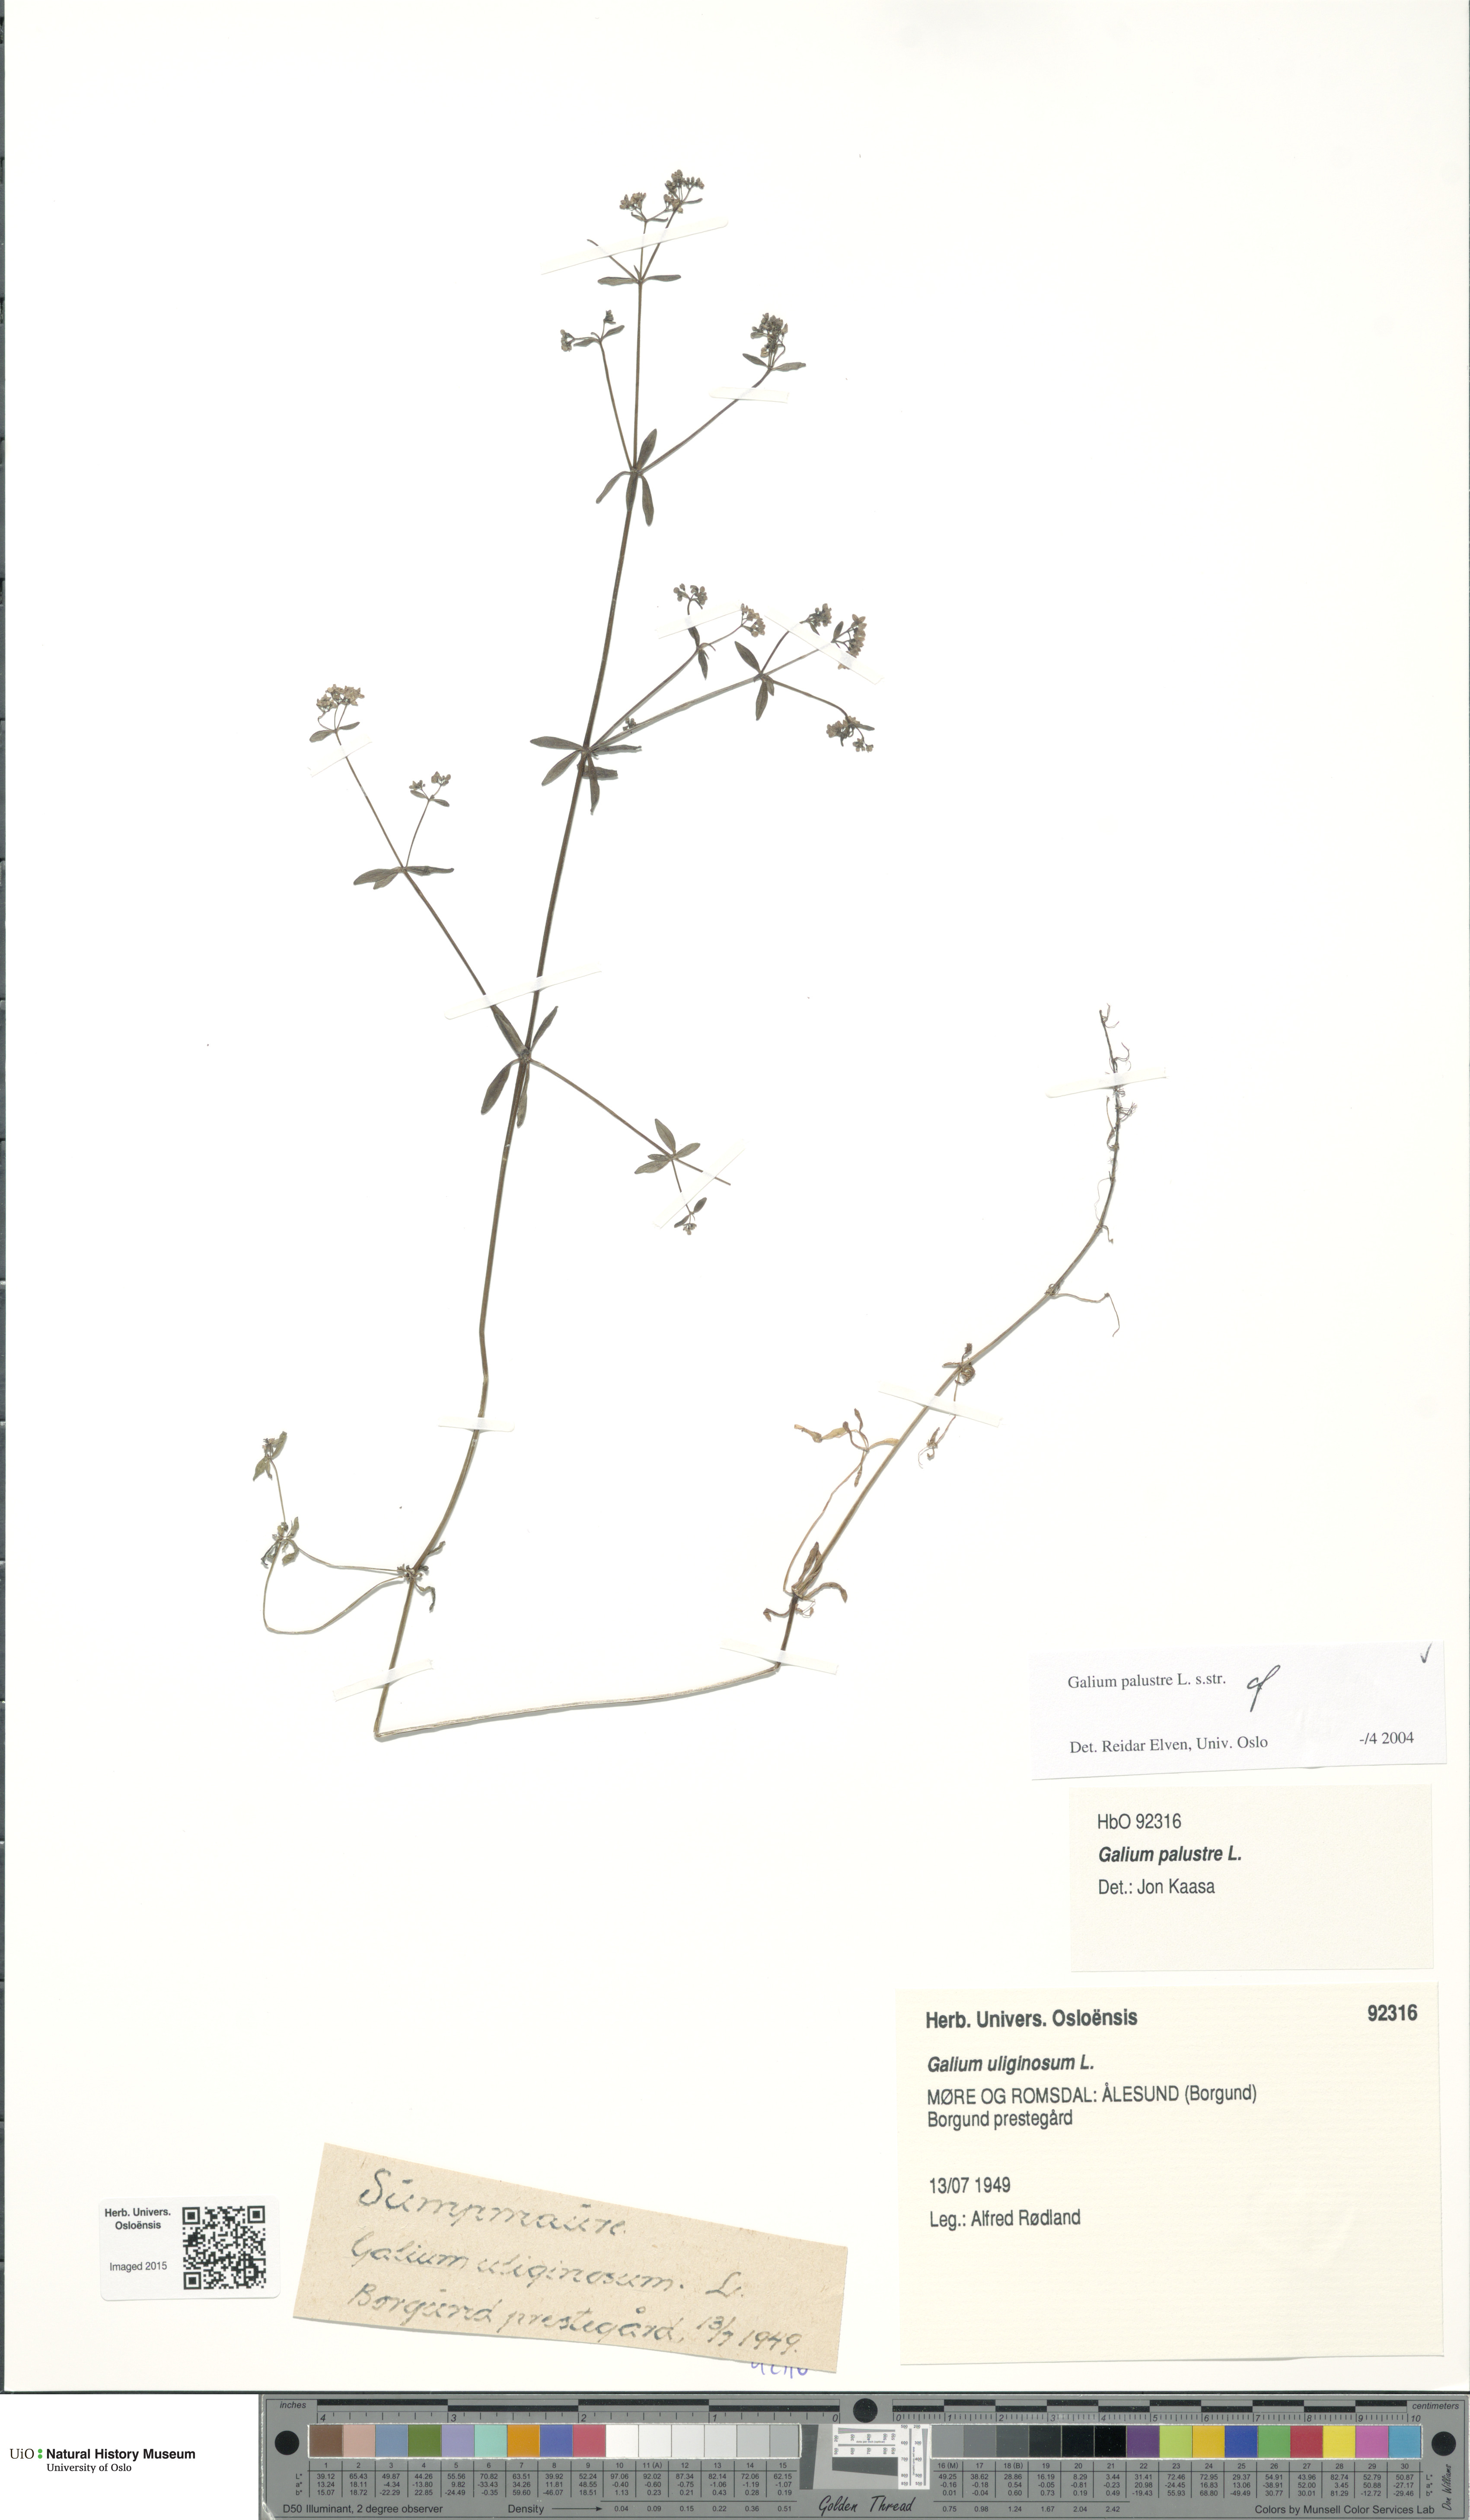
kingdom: Plantae
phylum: Tracheophyta
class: Magnoliopsida
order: Gentianales
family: Rubiaceae
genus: Galium
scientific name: Galium palustre
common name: Common marsh-bedstraw
